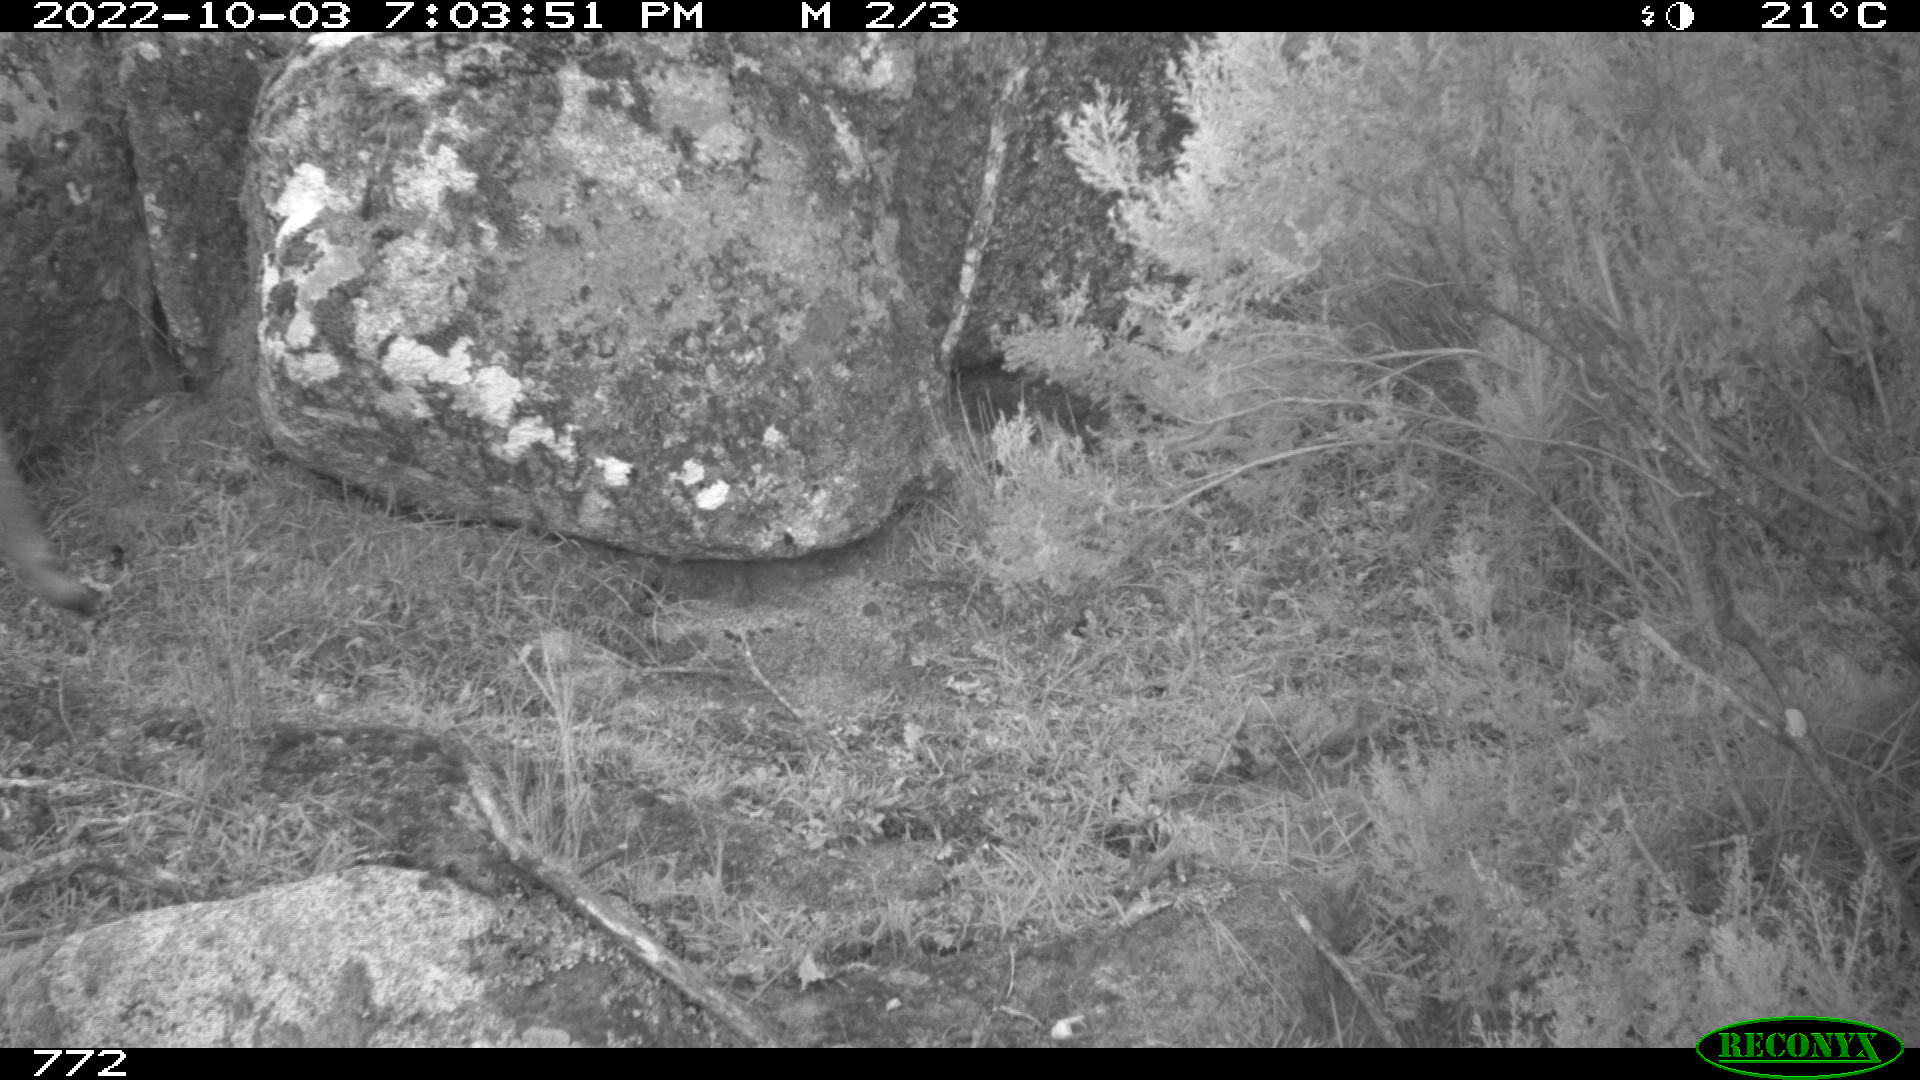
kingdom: Animalia
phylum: Chordata
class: Mammalia
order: Artiodactyla
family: Cervidae
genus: Capreolus
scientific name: Capreolus capreolus
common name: Western roe deer
